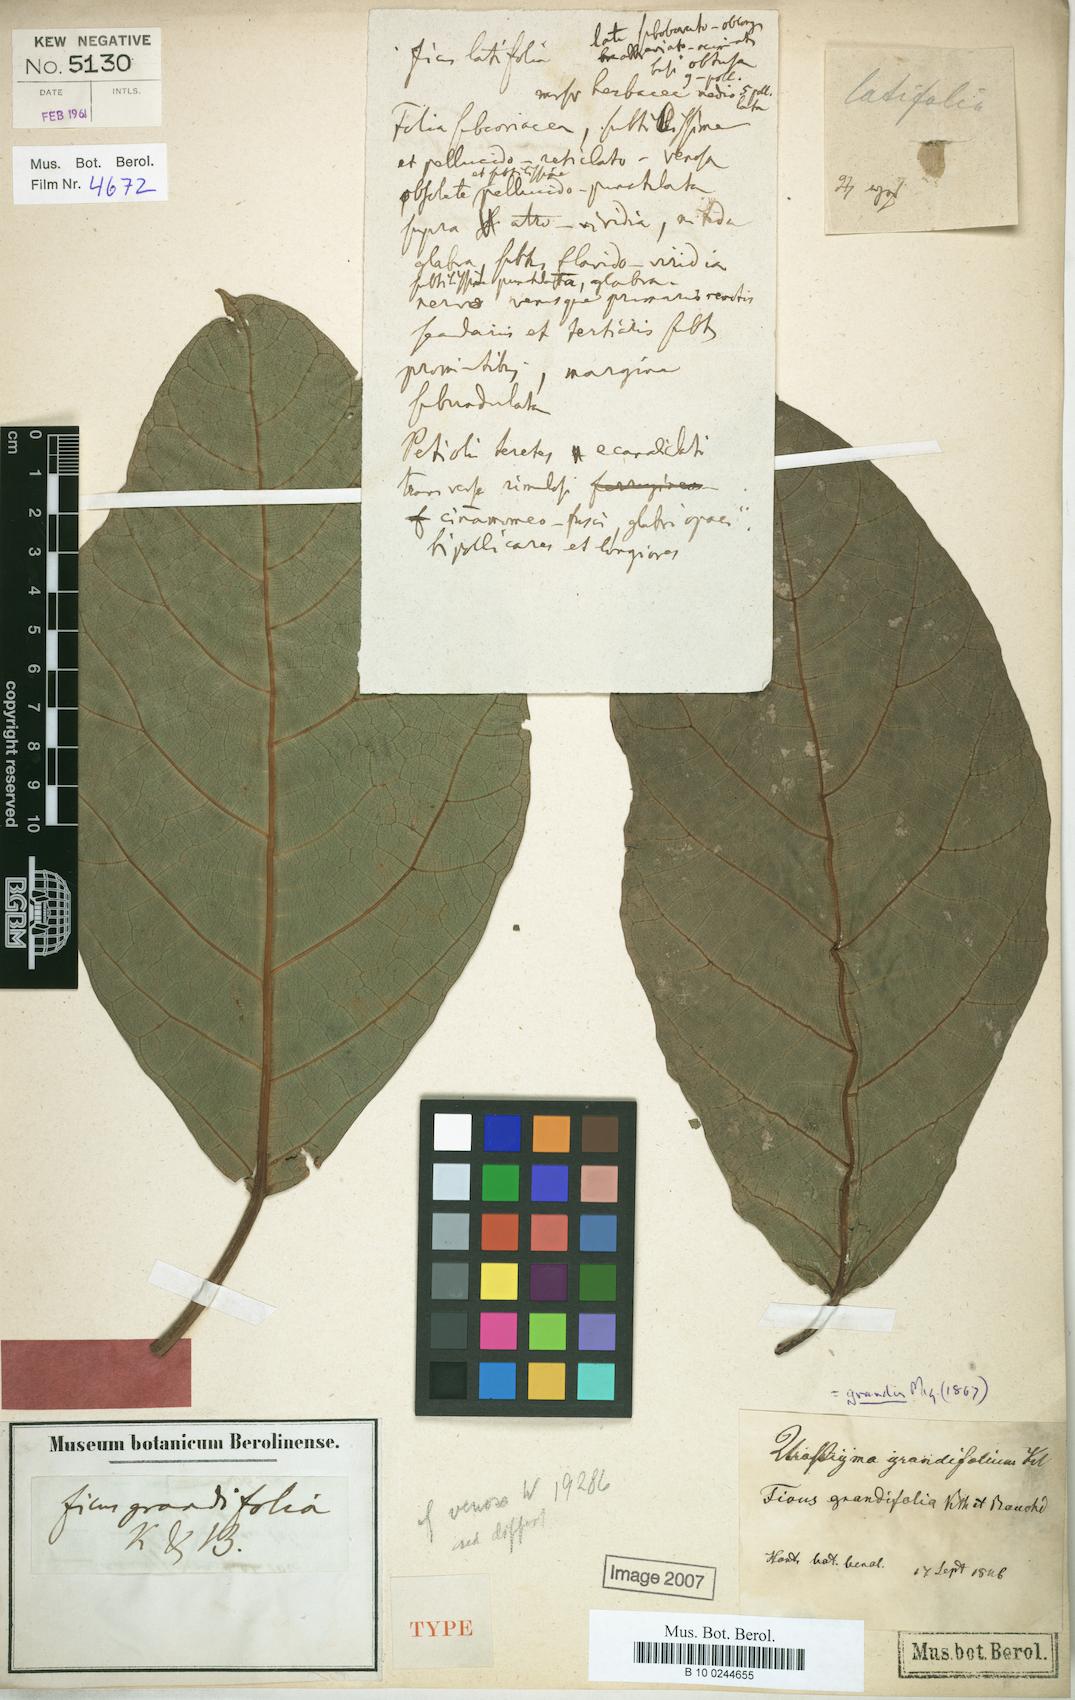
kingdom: Plantae
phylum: Tracheophyta
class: Magnoliopsida
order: Rosales
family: Moraceae
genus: Ficus
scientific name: Ficus grandifolia
